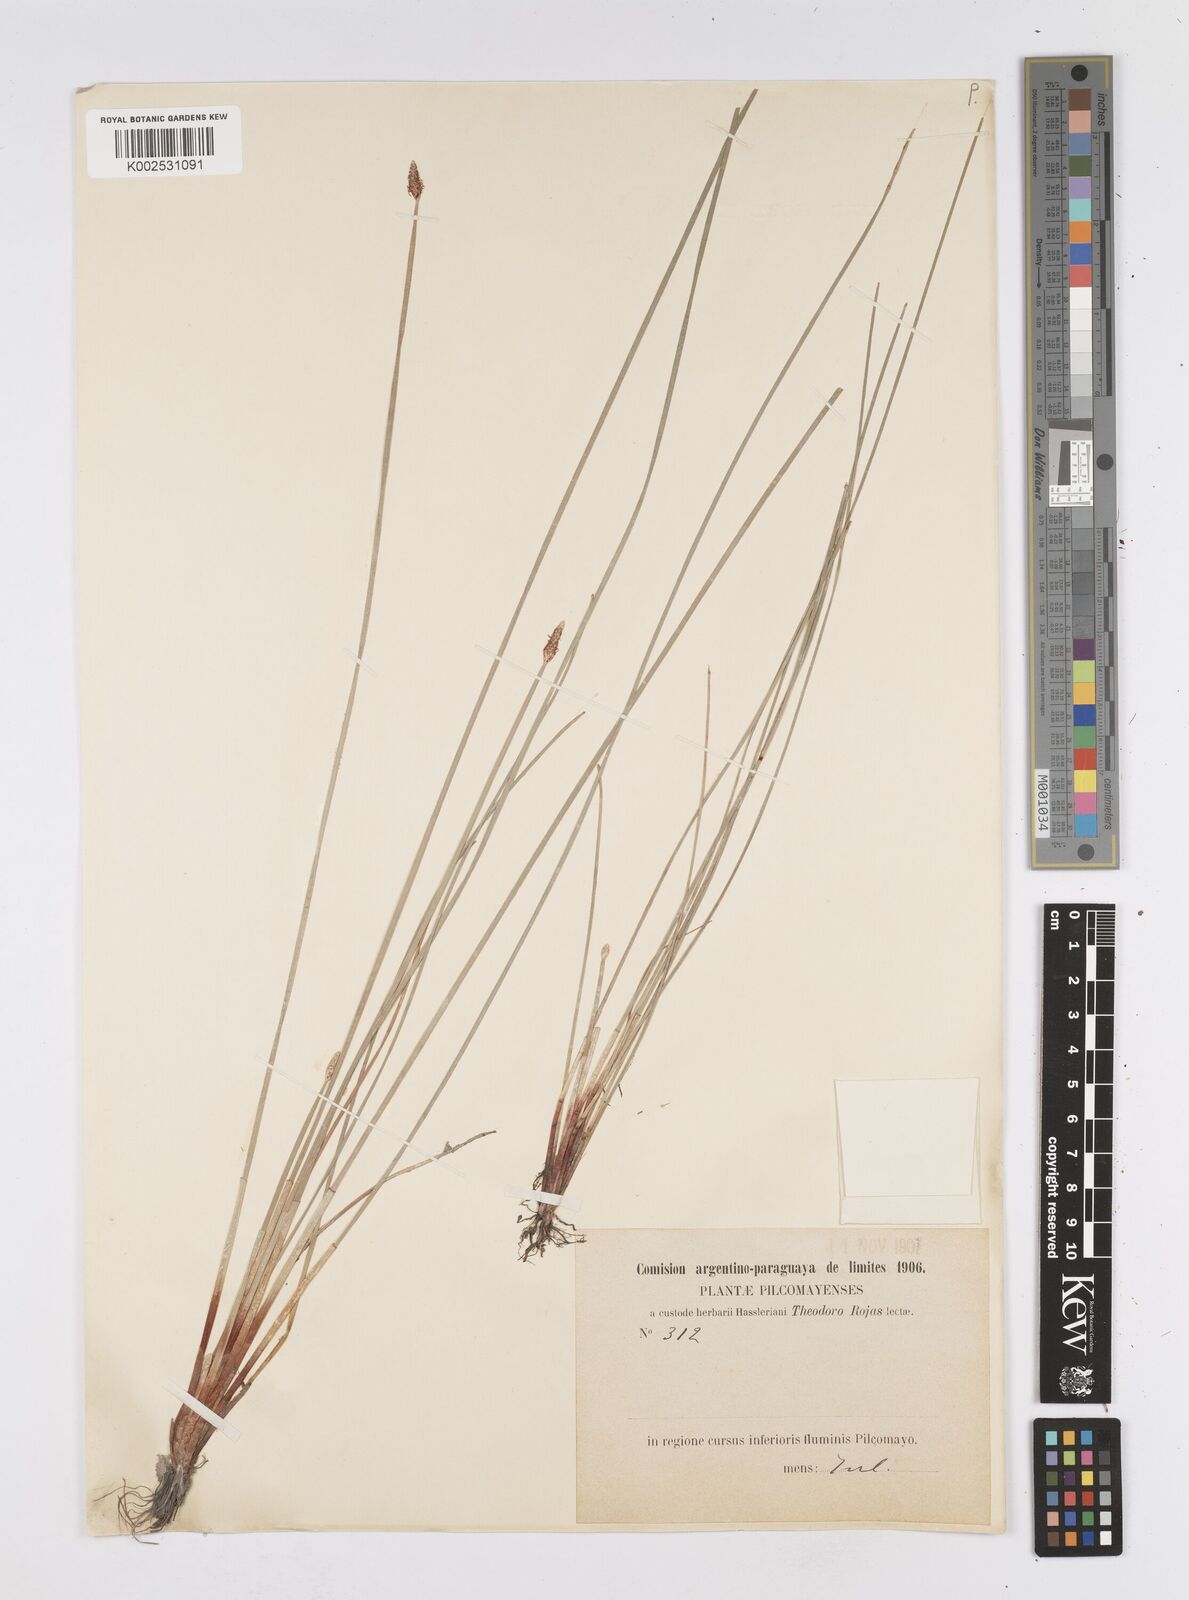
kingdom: Plantae
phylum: Tracheophyta
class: Liliopsida
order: Poales
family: Cyperaceae
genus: Eleocharis
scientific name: Eleocharis
